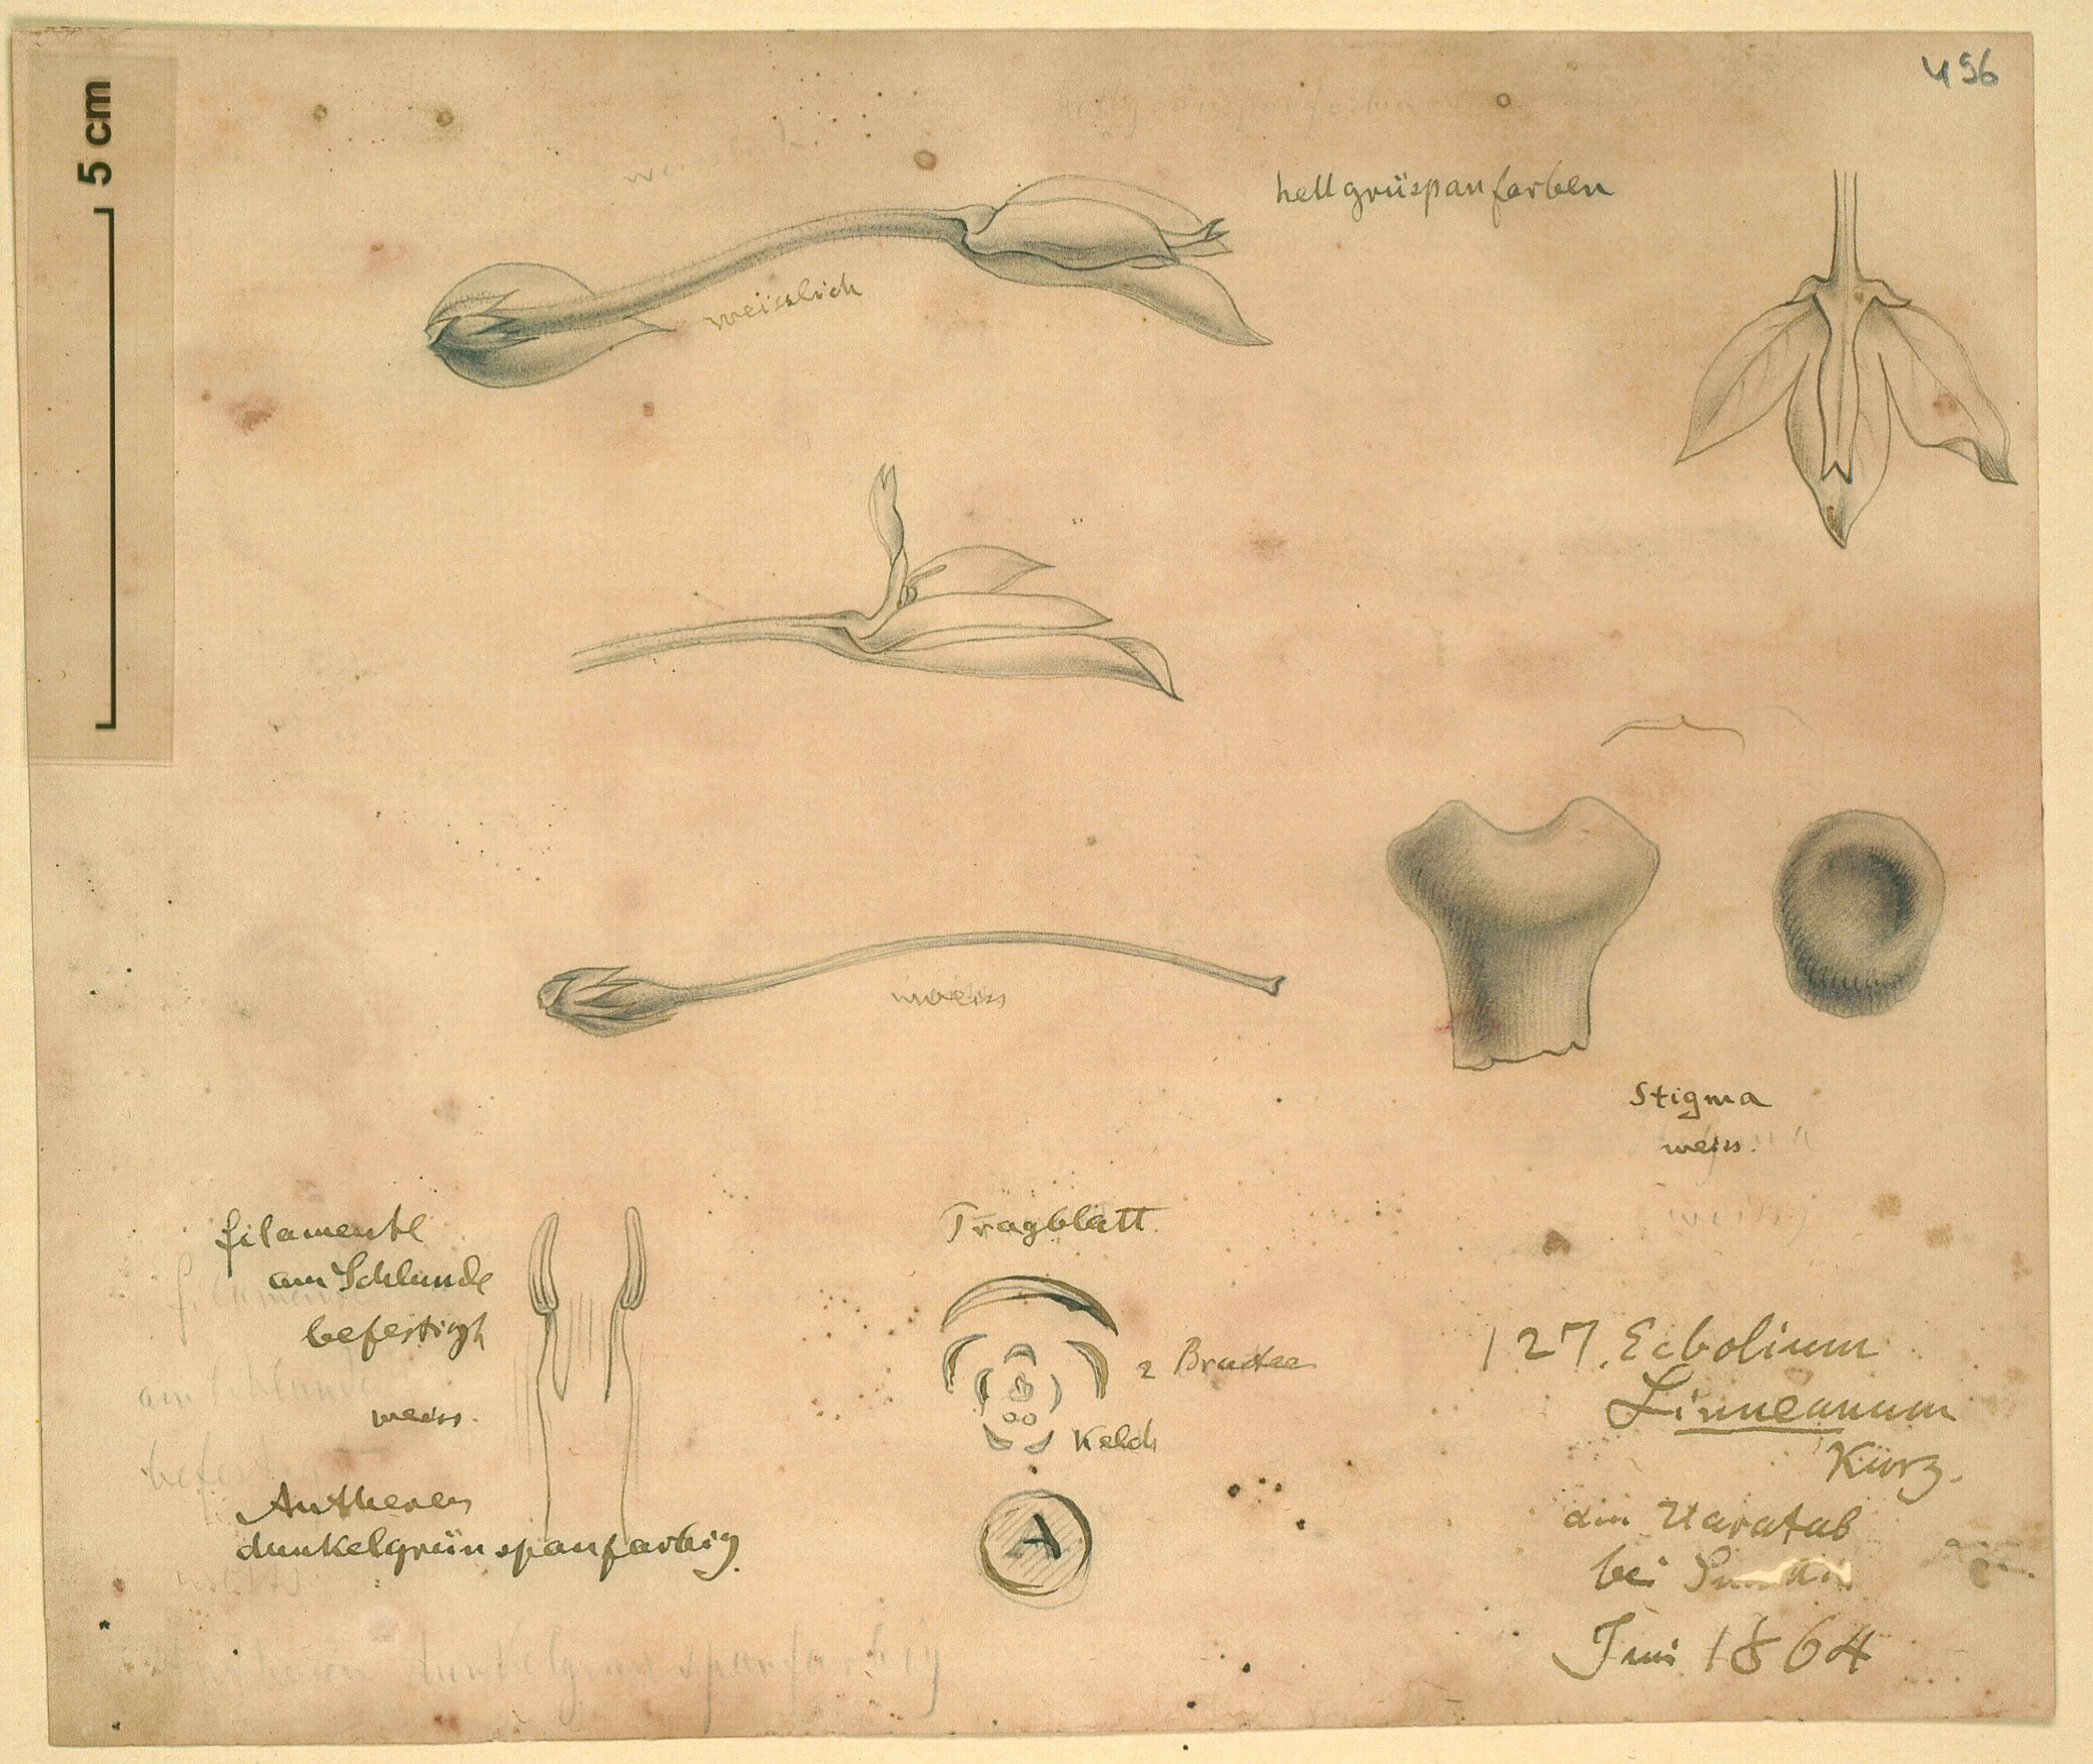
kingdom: Plantae
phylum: Tracheophyta
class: Magnoliopsida
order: Lamiales
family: Acanthaceae
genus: Ecbolium
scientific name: Ecbolium ligustrinum
